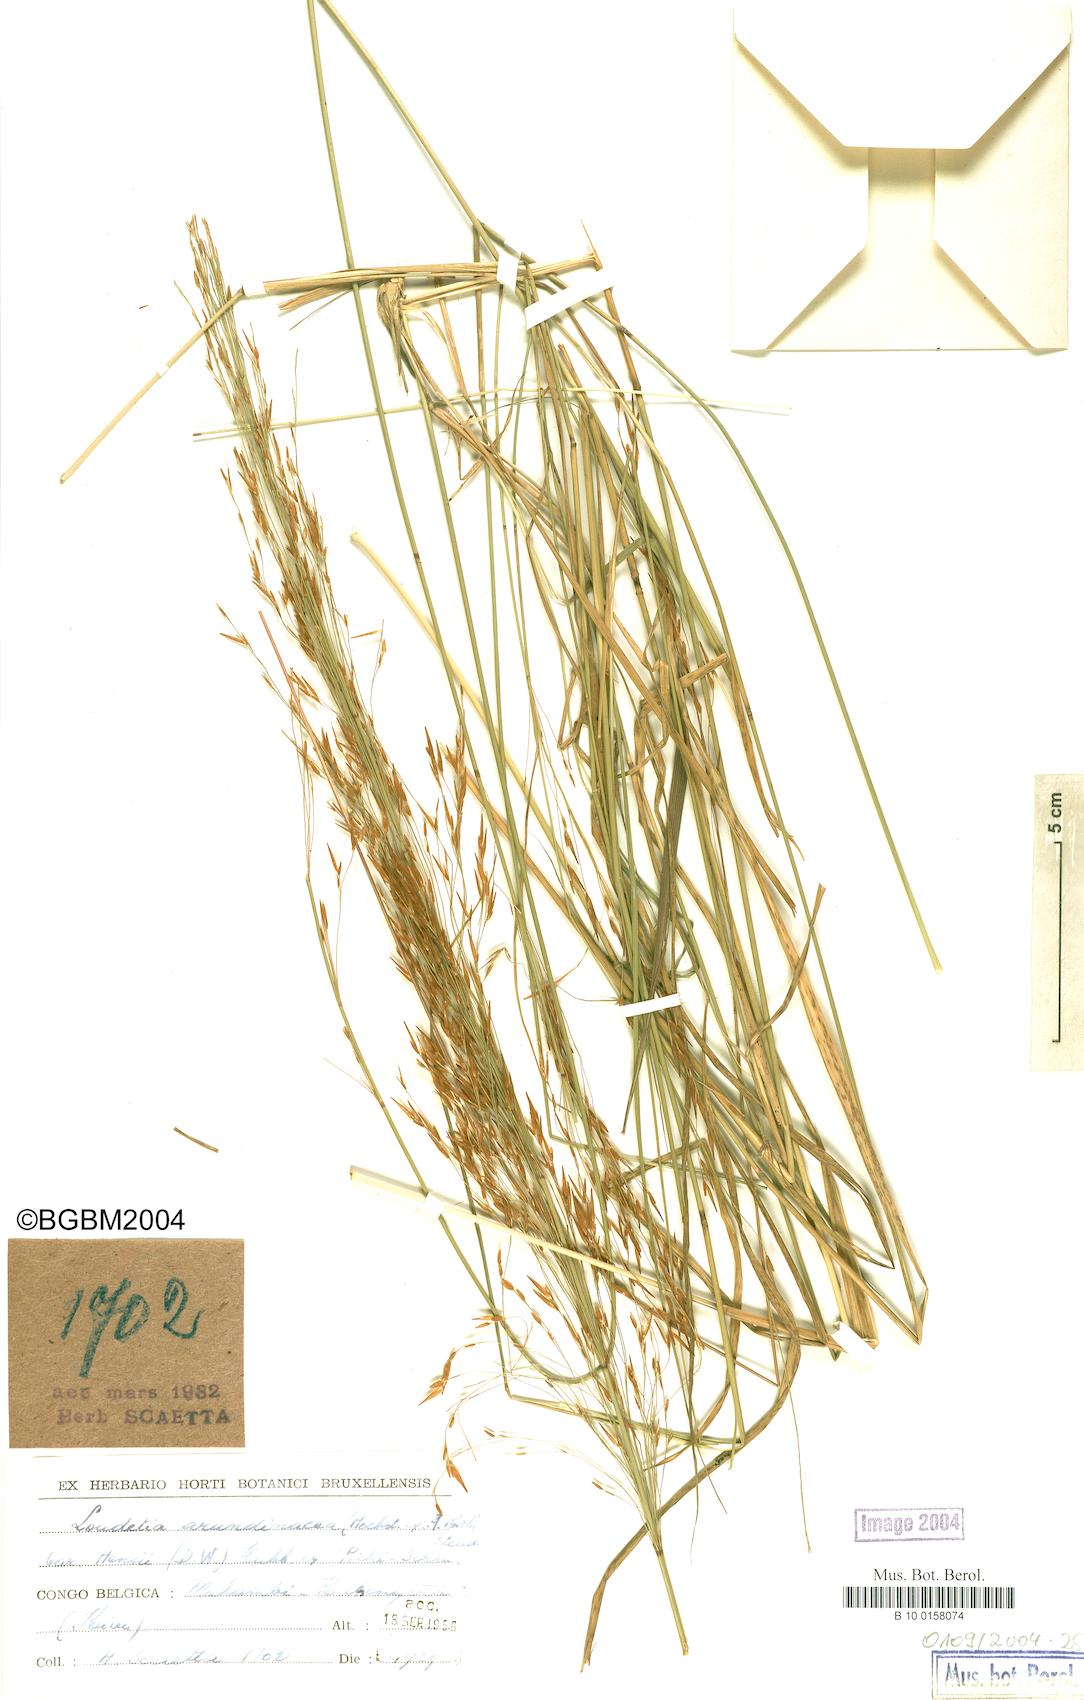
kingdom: Plantae
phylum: Tracheophyta
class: Liliopsida
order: Poales
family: Poaceae
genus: Loudetia
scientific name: Loudetia arundinacea
